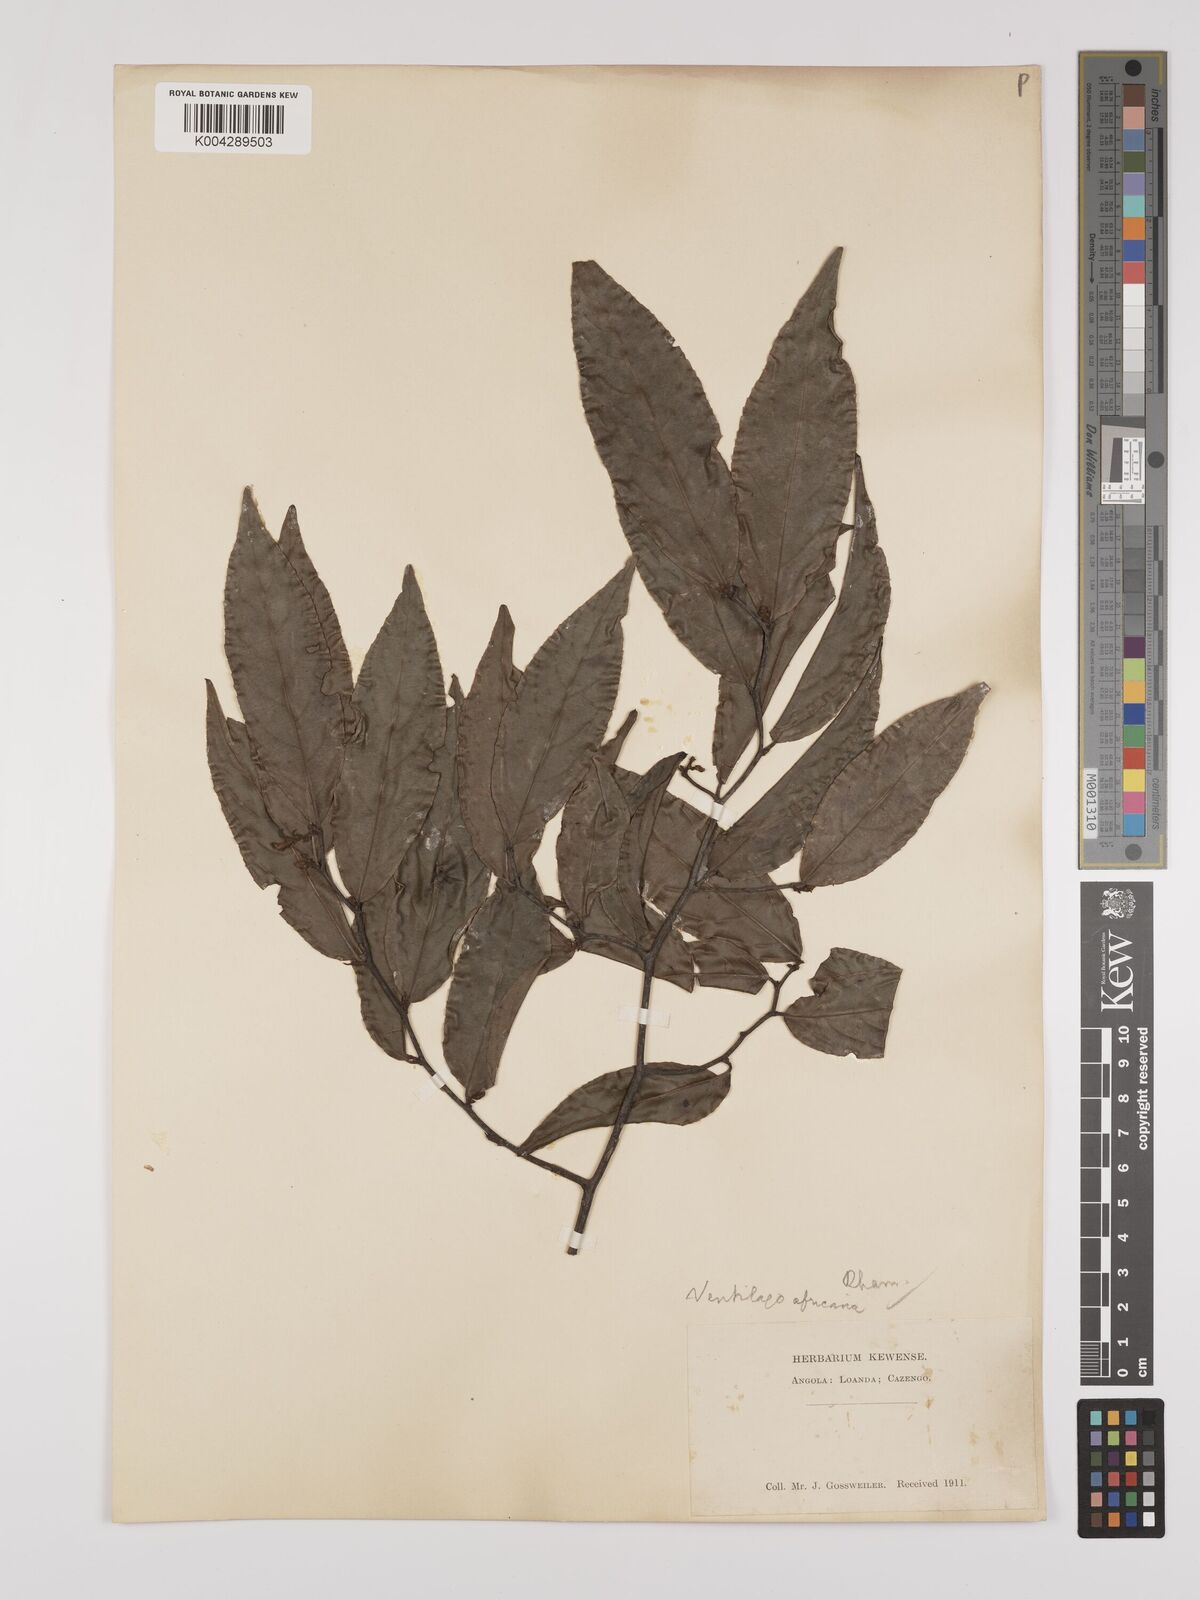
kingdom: Plantae
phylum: Tracheophyta
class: Magnoliopsida
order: Rosales
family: Rhamnaceae
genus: Ventilago
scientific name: Ventilago africana
